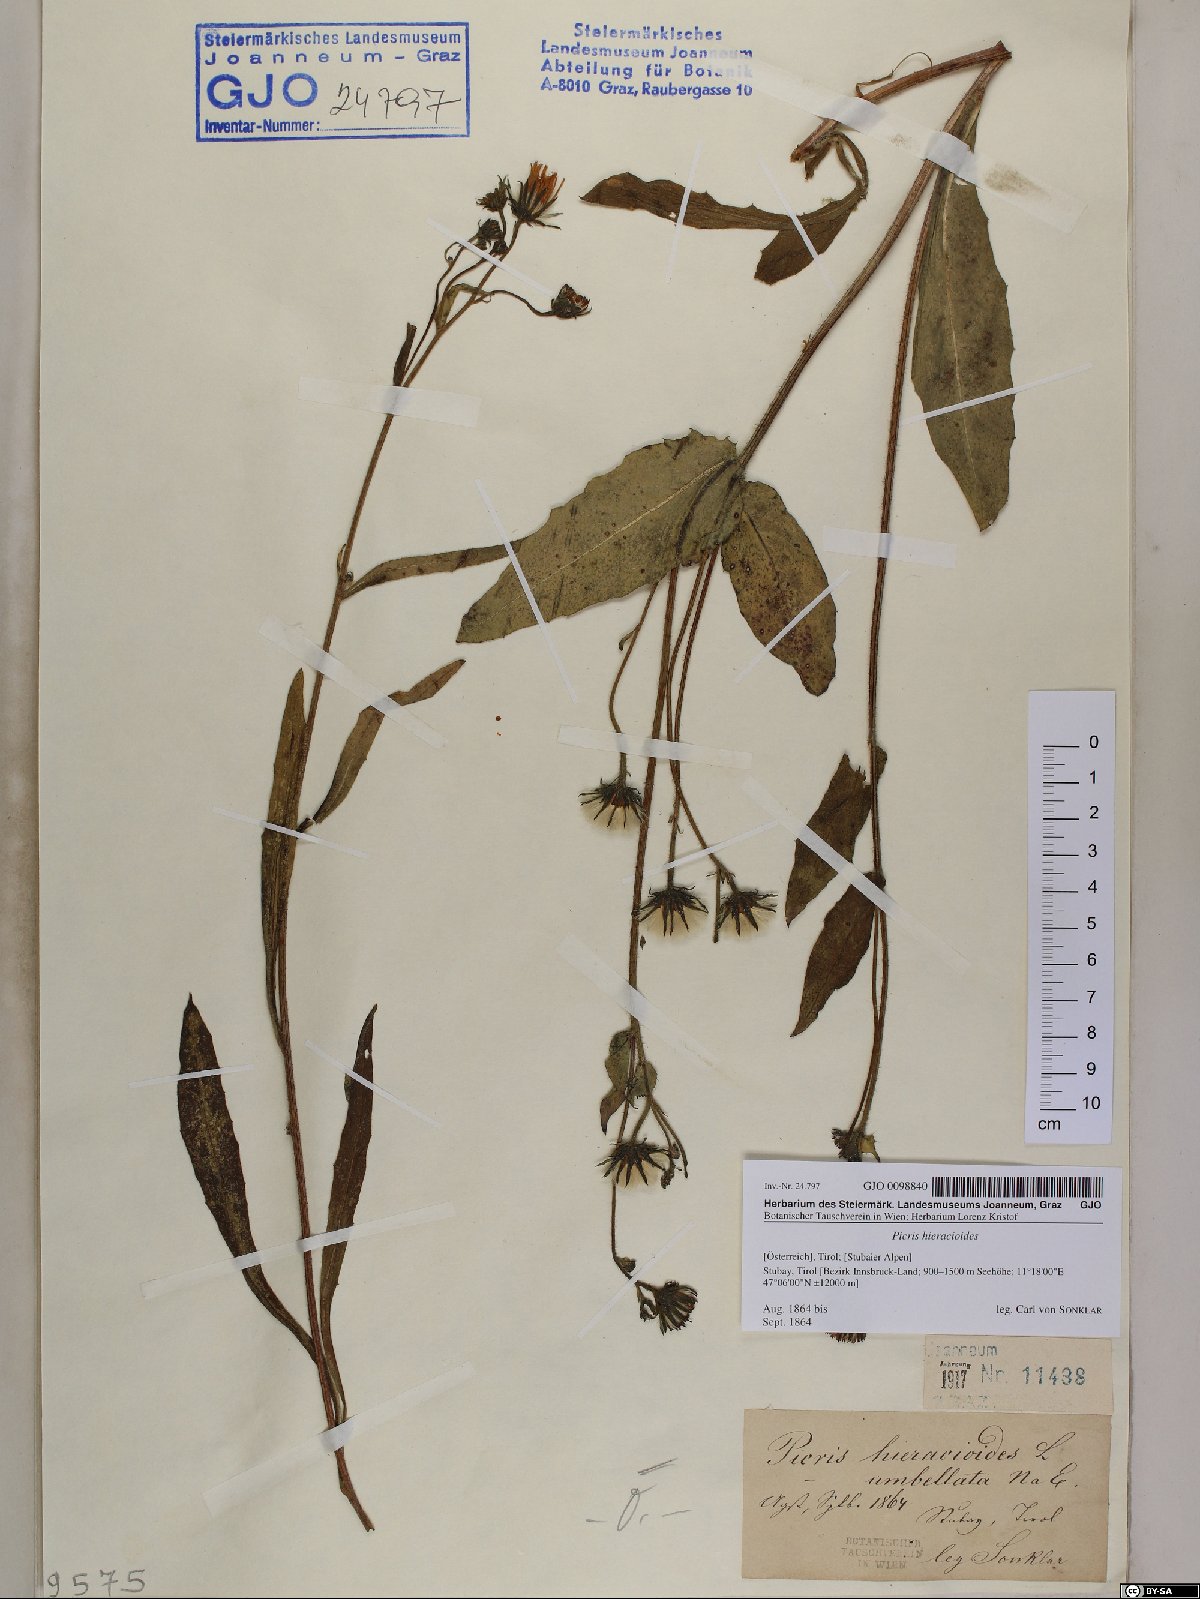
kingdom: Plantae
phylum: Tracheophyta
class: Magnoliopsida
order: Asterales
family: Asteraceae
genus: Picris
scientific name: Picris hieracioides
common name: Hawkweed oxtongue
